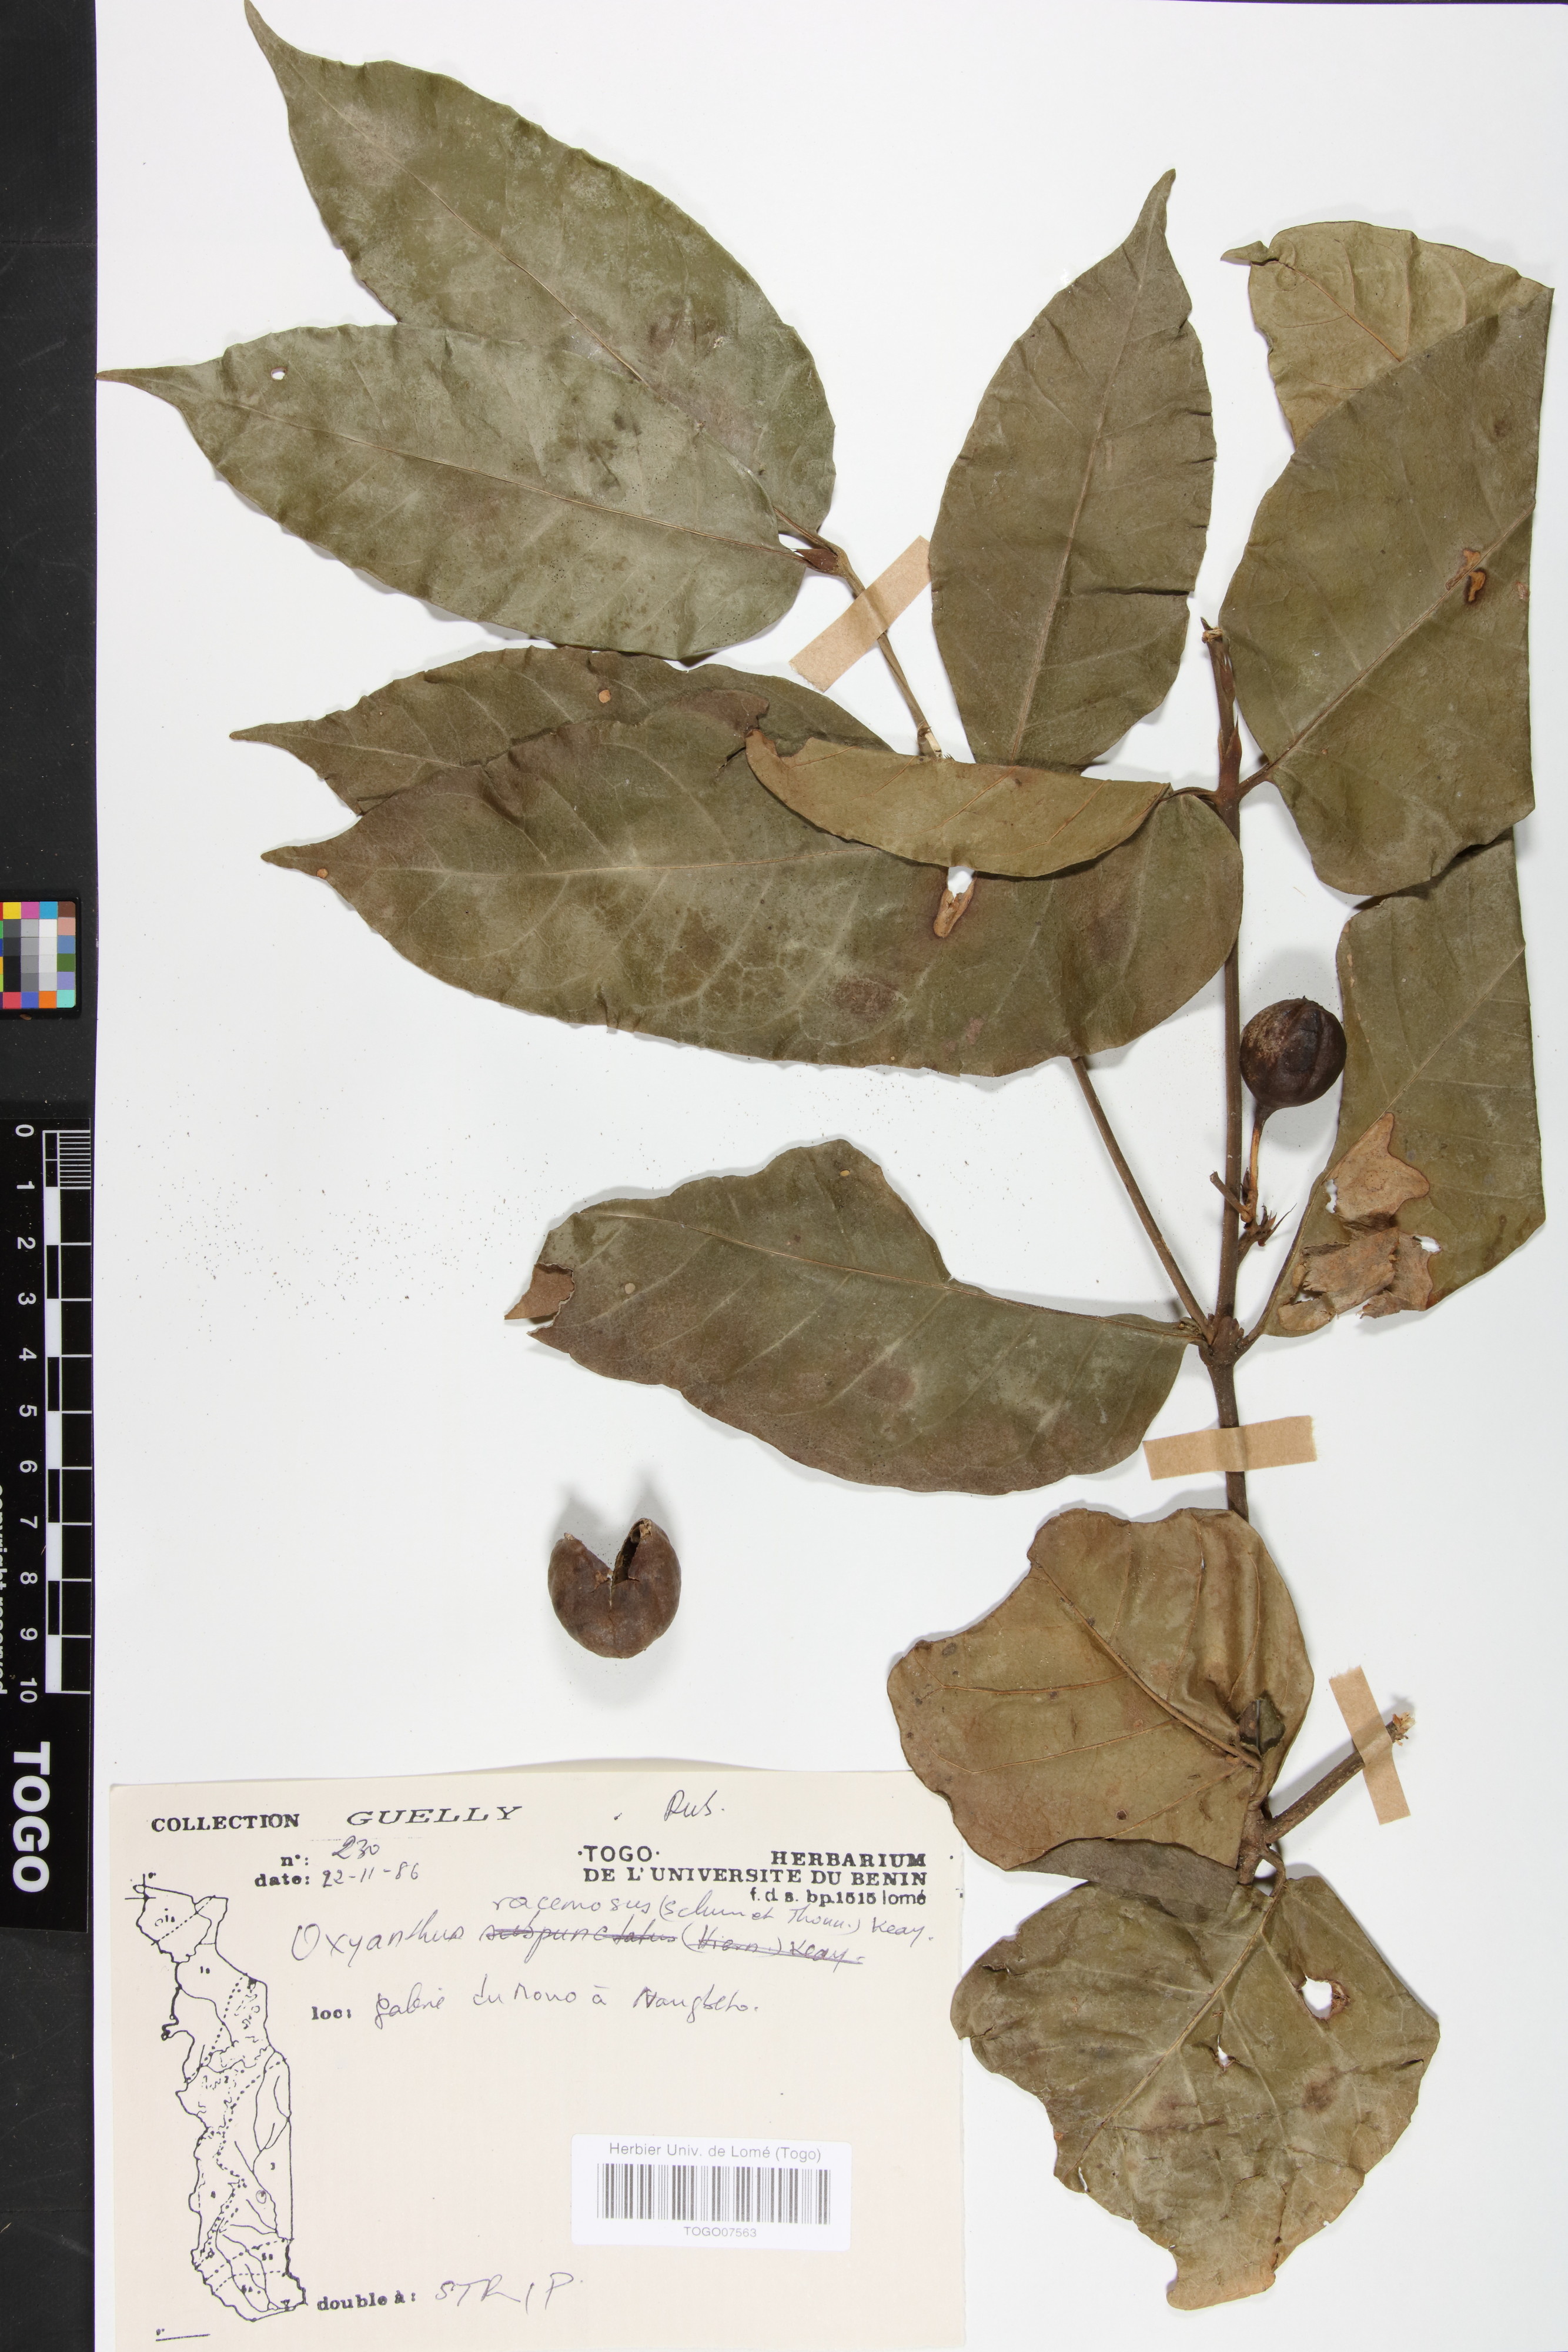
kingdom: Plantae
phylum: Tracheophyta
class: Magnoliopsida
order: Gentianales
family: Rubiaceae
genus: Oxyanthus
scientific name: Oxyanthus racemosus
